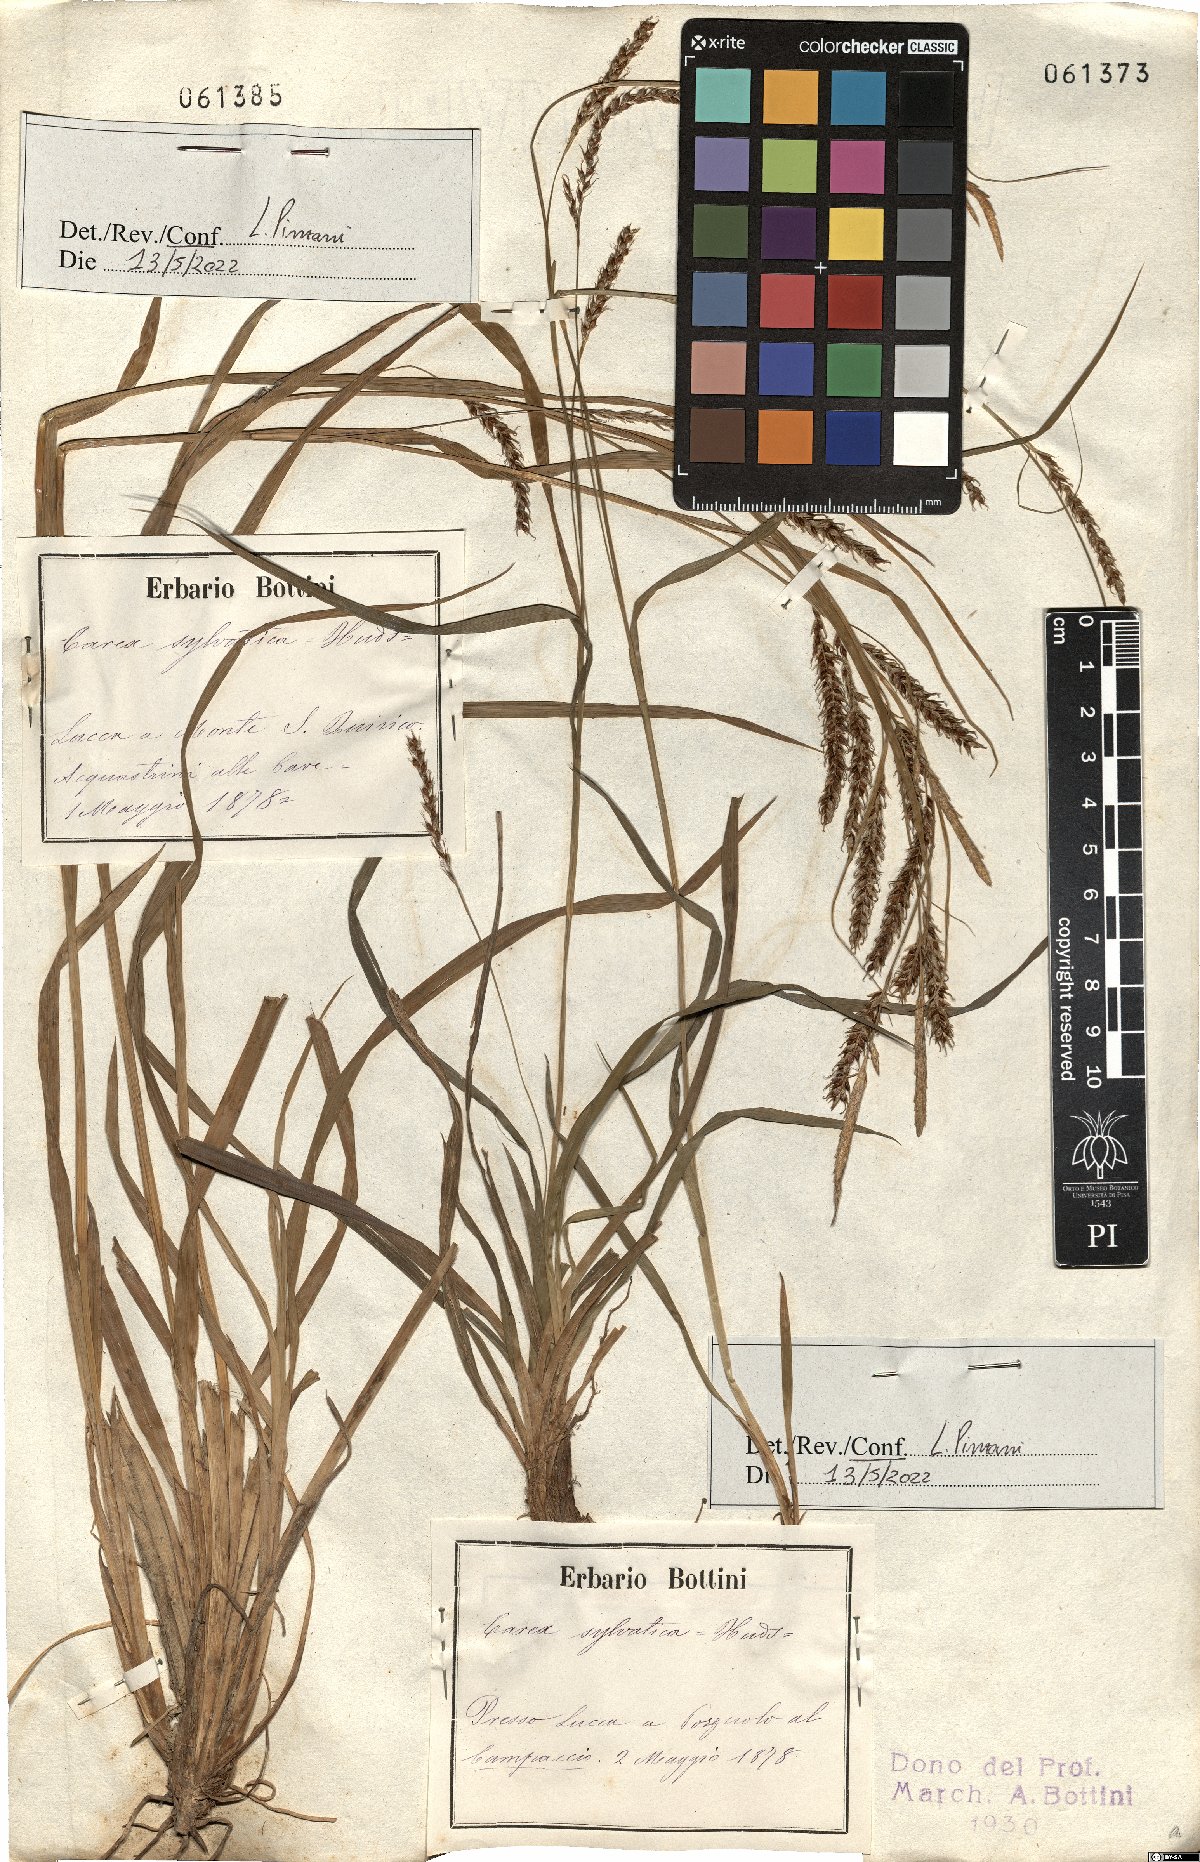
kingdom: Plantae
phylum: Tracheophyta
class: Liliopsida
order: Poales
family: Cyperaceae
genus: Carex
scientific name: Carex sylvatica
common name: Wood-sedge
